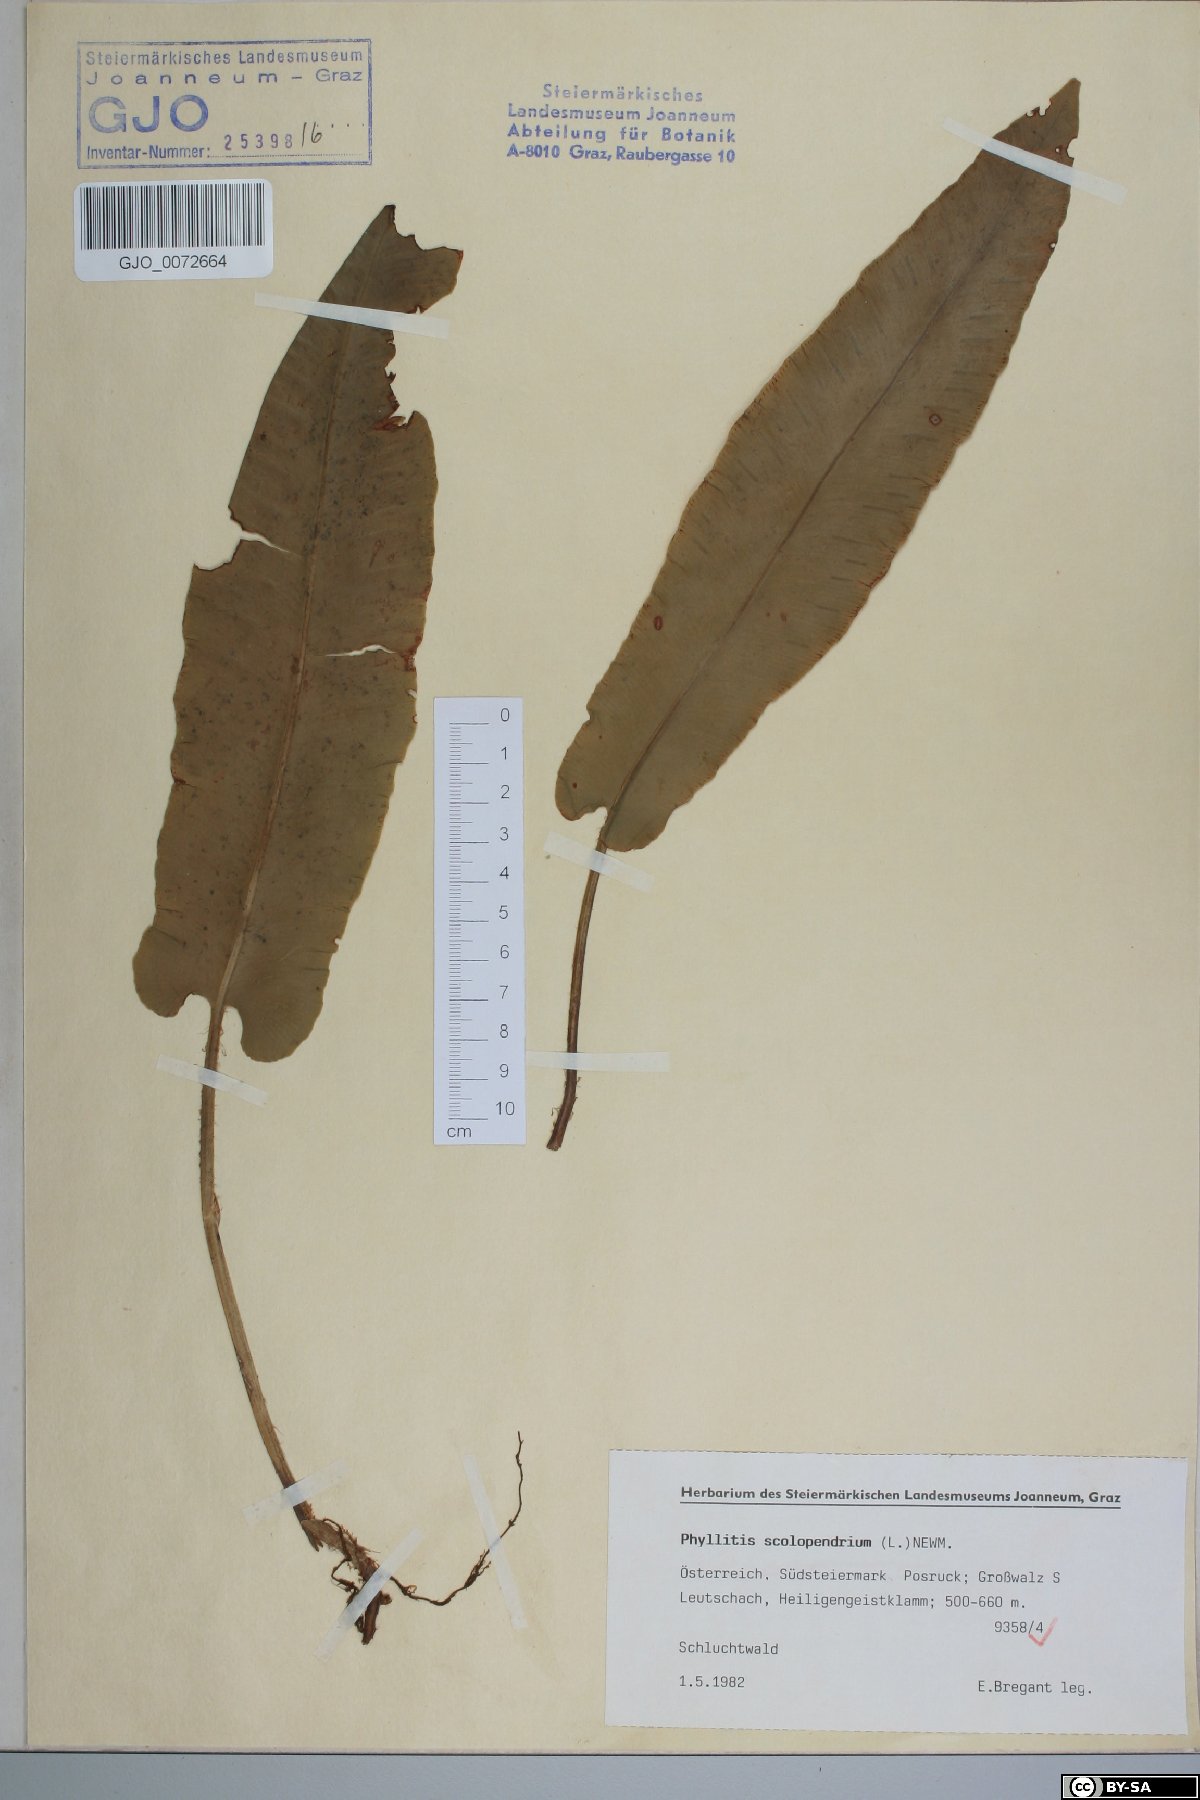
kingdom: Plantae
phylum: Tracheophyta
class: Polypodiopsida
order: Polypodiales
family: Aspleniaceae
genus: Asplenium
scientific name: Asplenium scolopendrium
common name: Hart's-tongue fern
